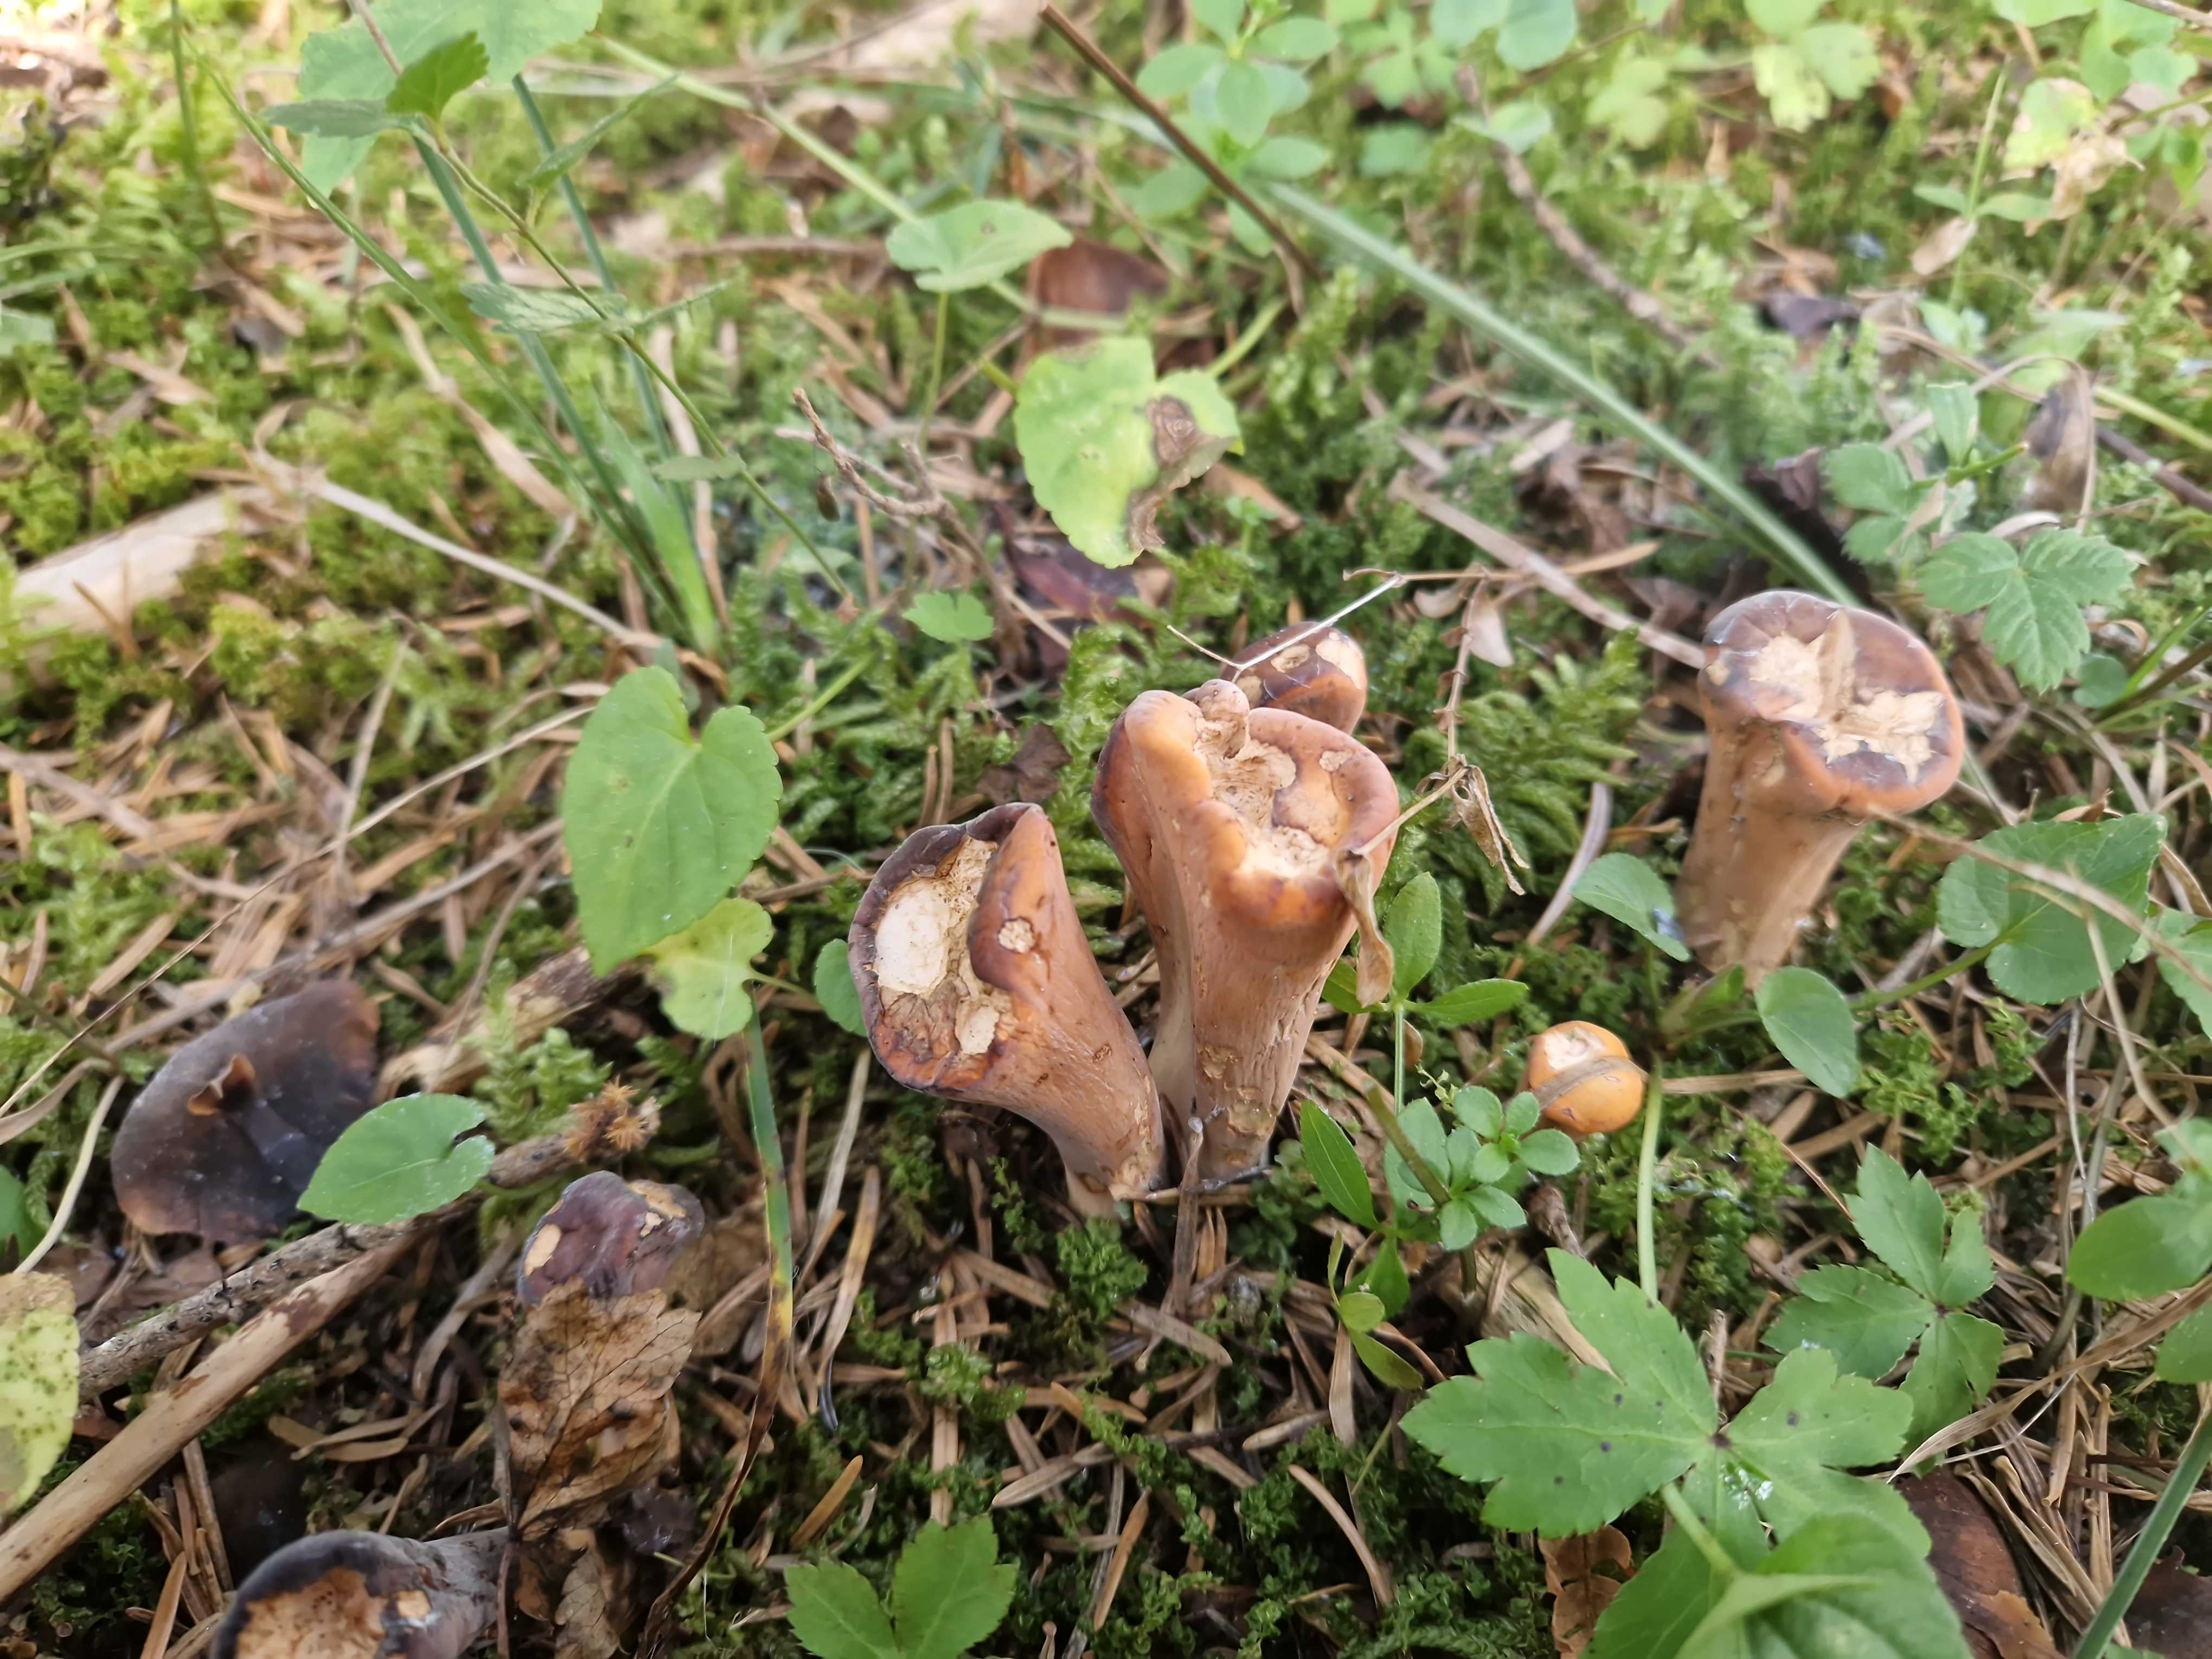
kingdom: Fungi
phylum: Basidiomycota
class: Agaricomycetes
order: Gomphales
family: Clavariadelphaceae
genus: Clavariadelphus
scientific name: Clavariadelphus truncatus
